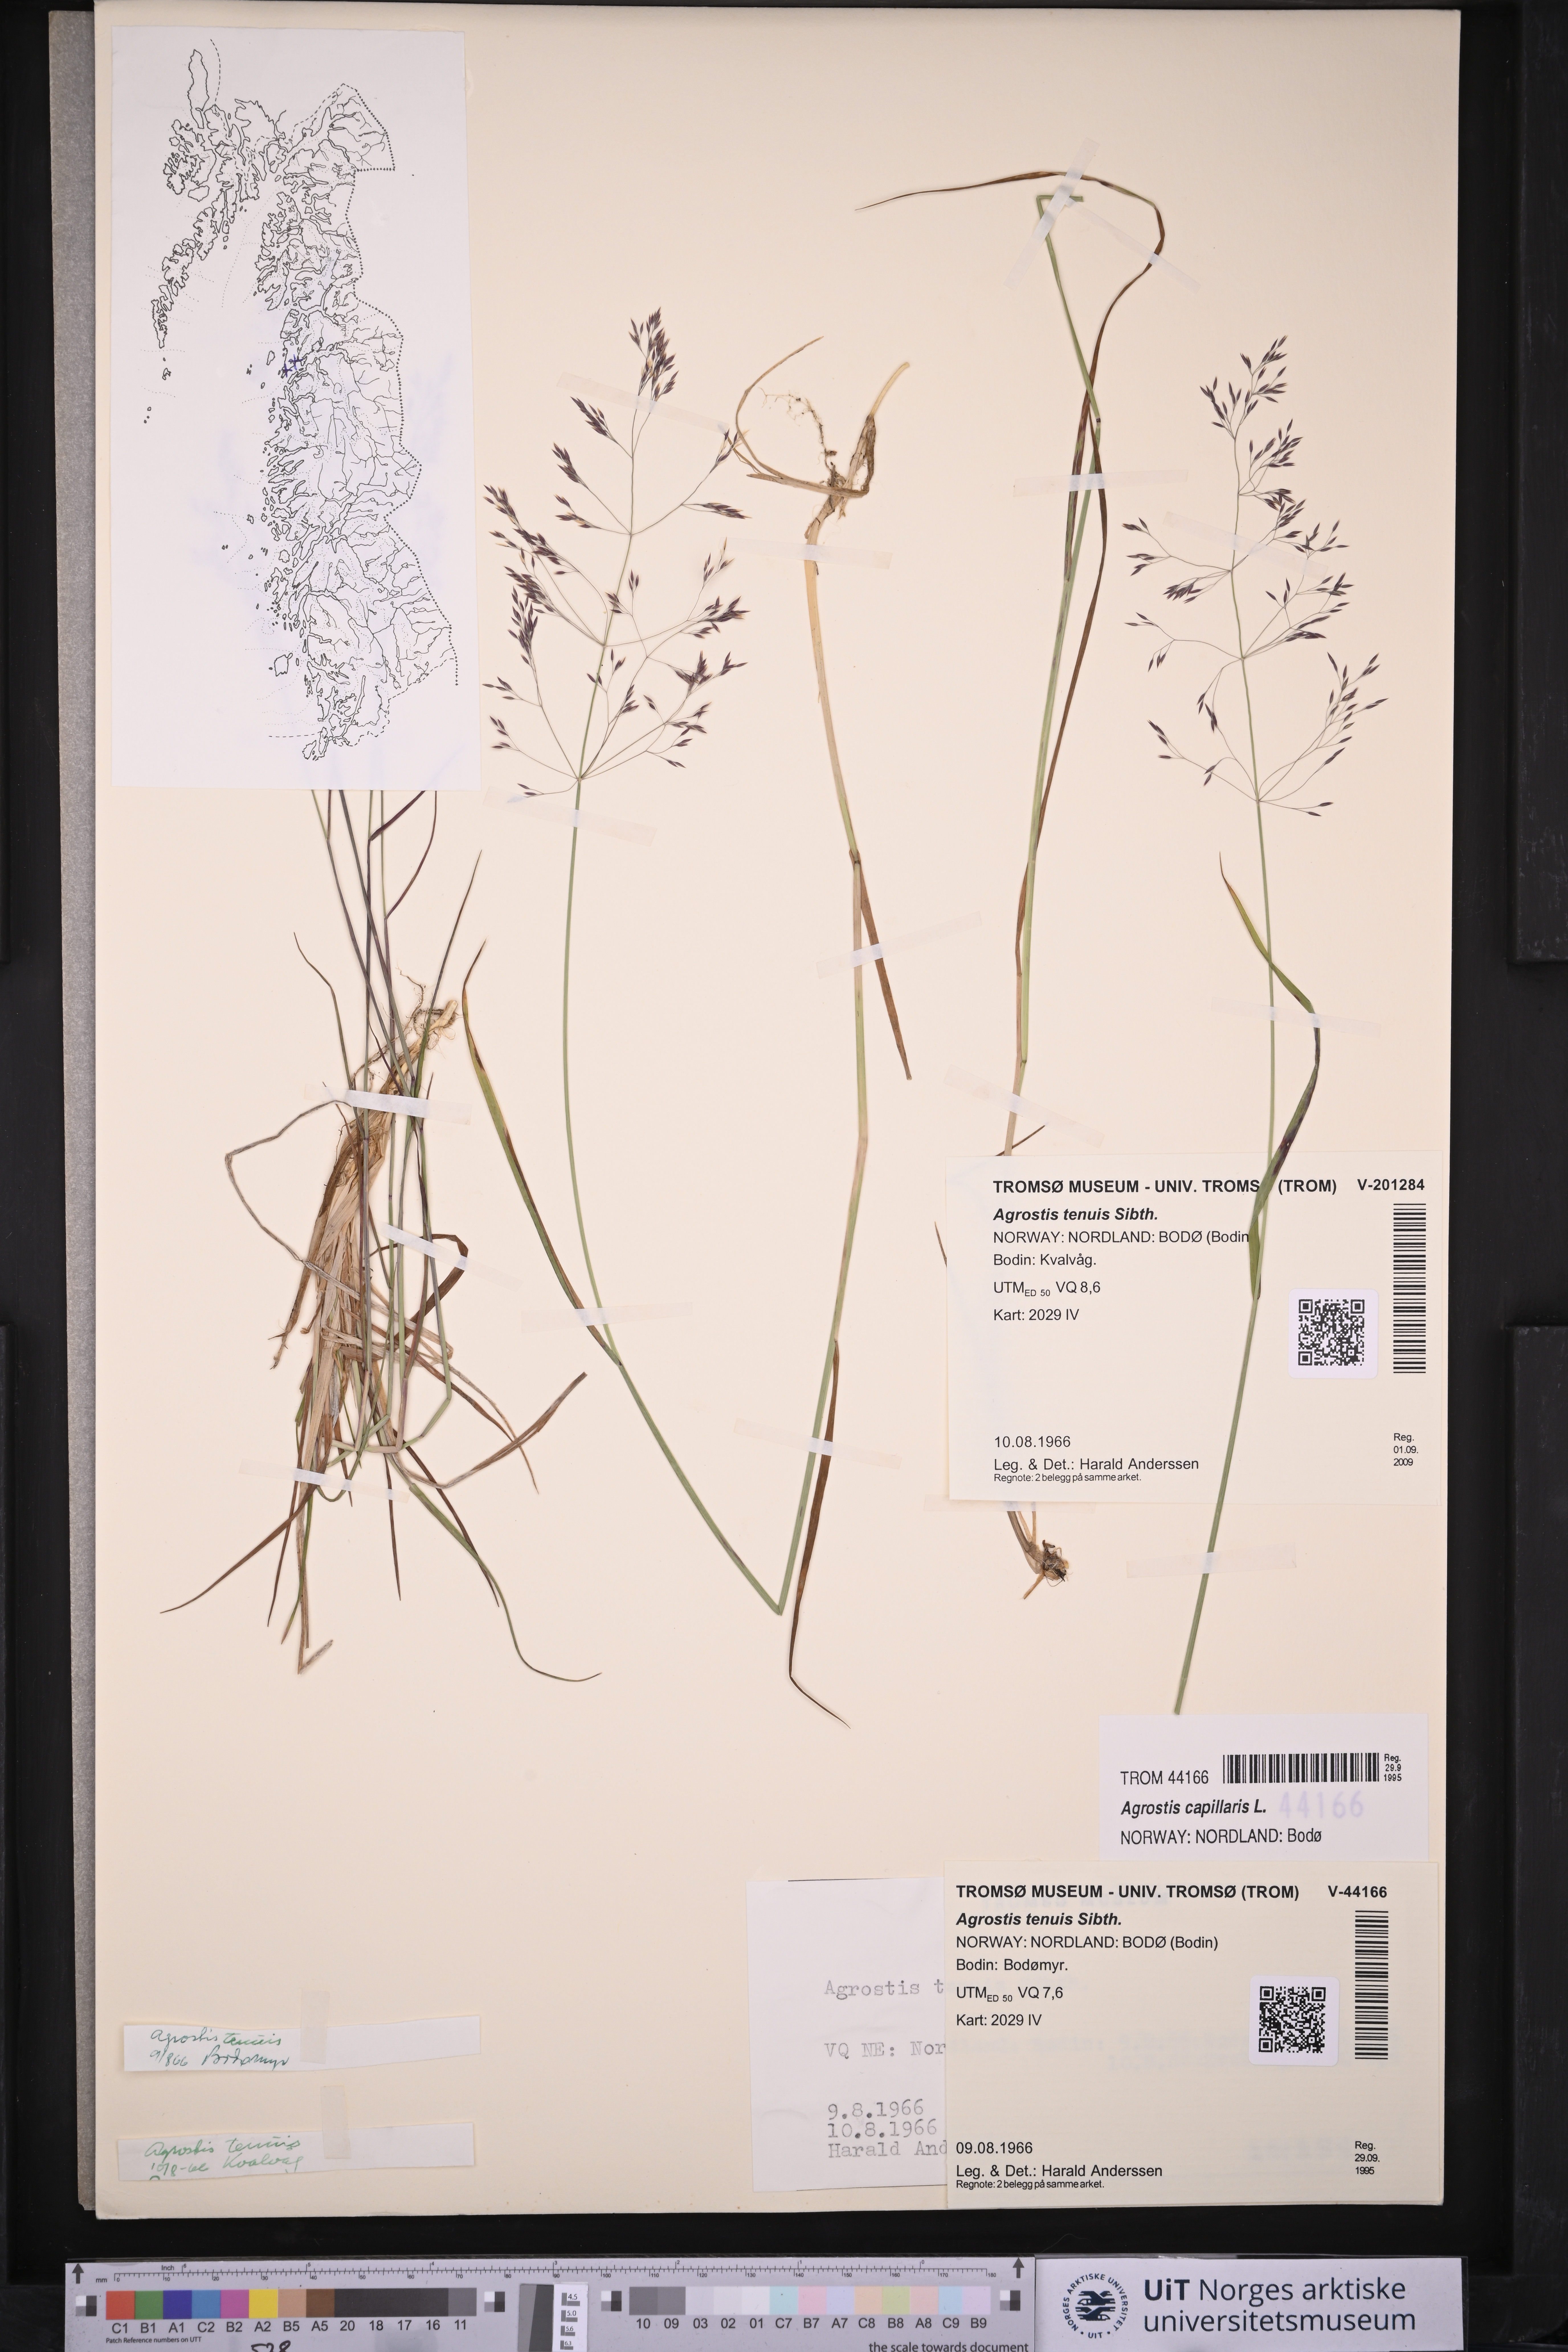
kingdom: Plantae
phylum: Tracheophyta
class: Liliopsida
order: Poales
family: Poaceae
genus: Agrostis
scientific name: Agrostis capillaris
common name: Colonial bentgrass
